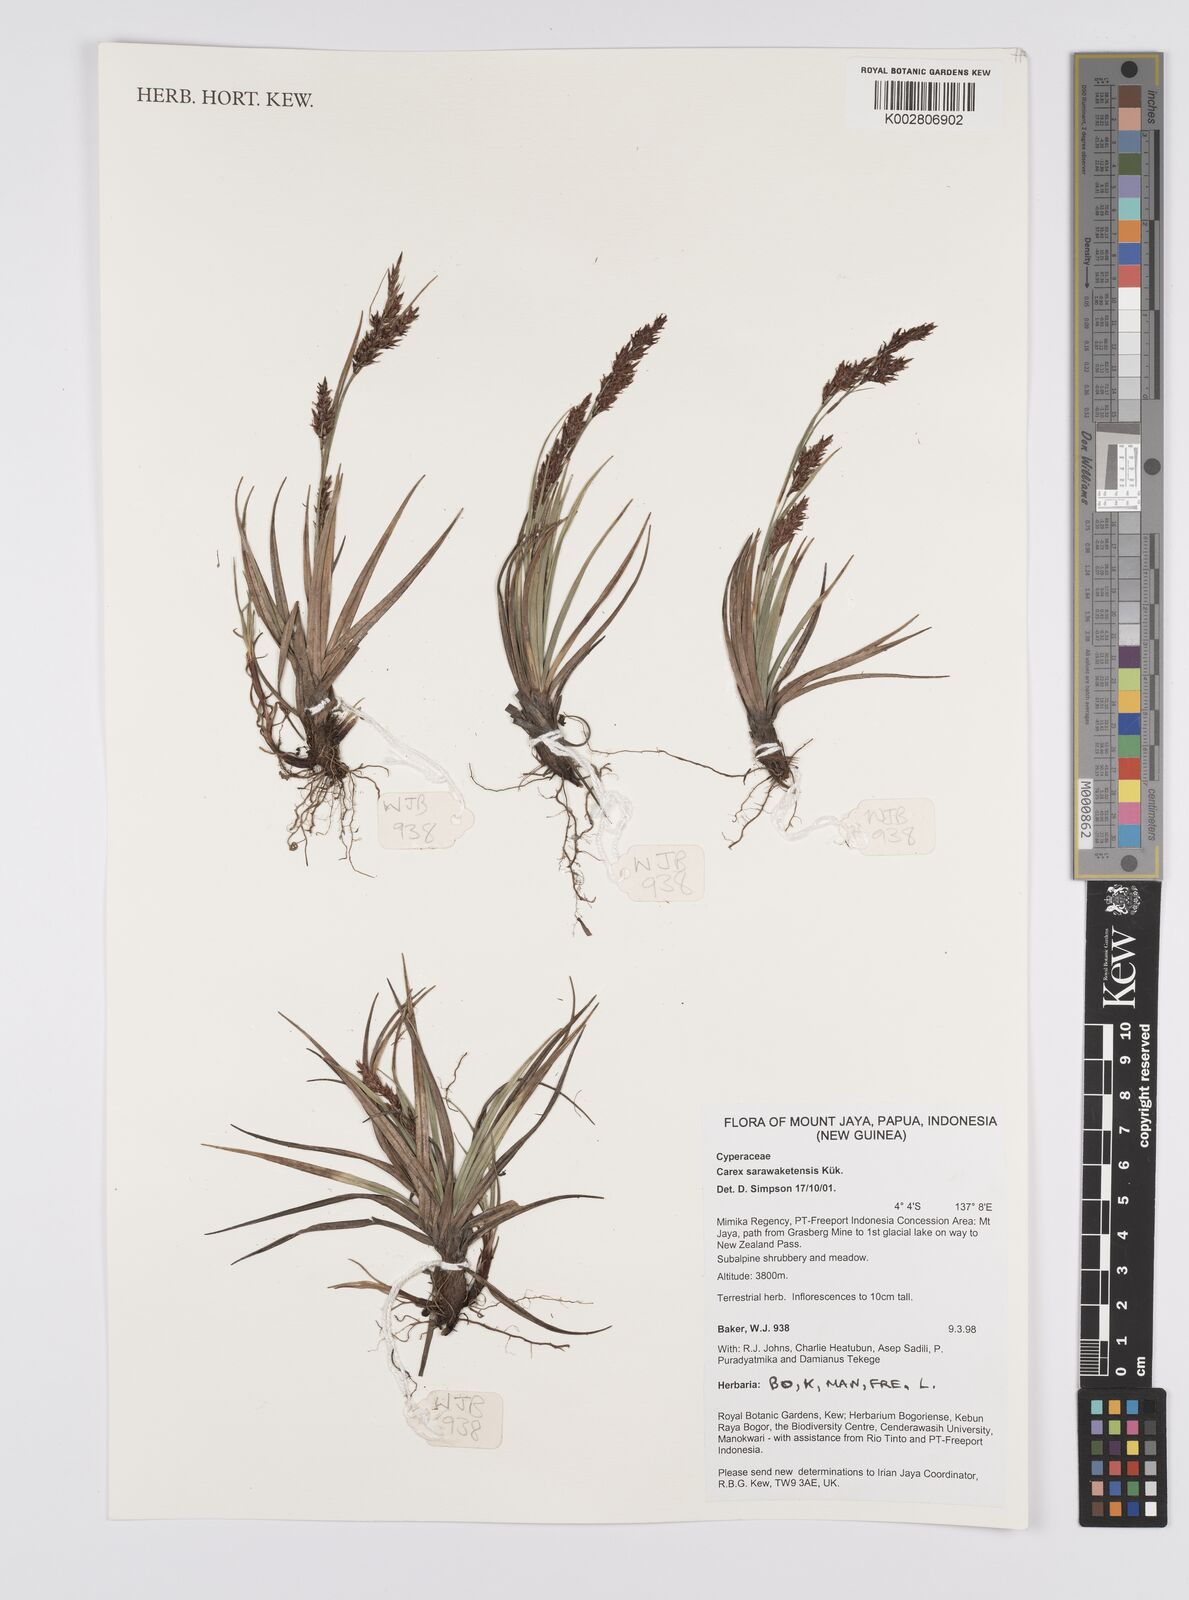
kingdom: Plantae
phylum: Tracheophyta
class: Liliopsida
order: Poales
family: Cyperaceae
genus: Carex
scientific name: Carex sarawaketensis
